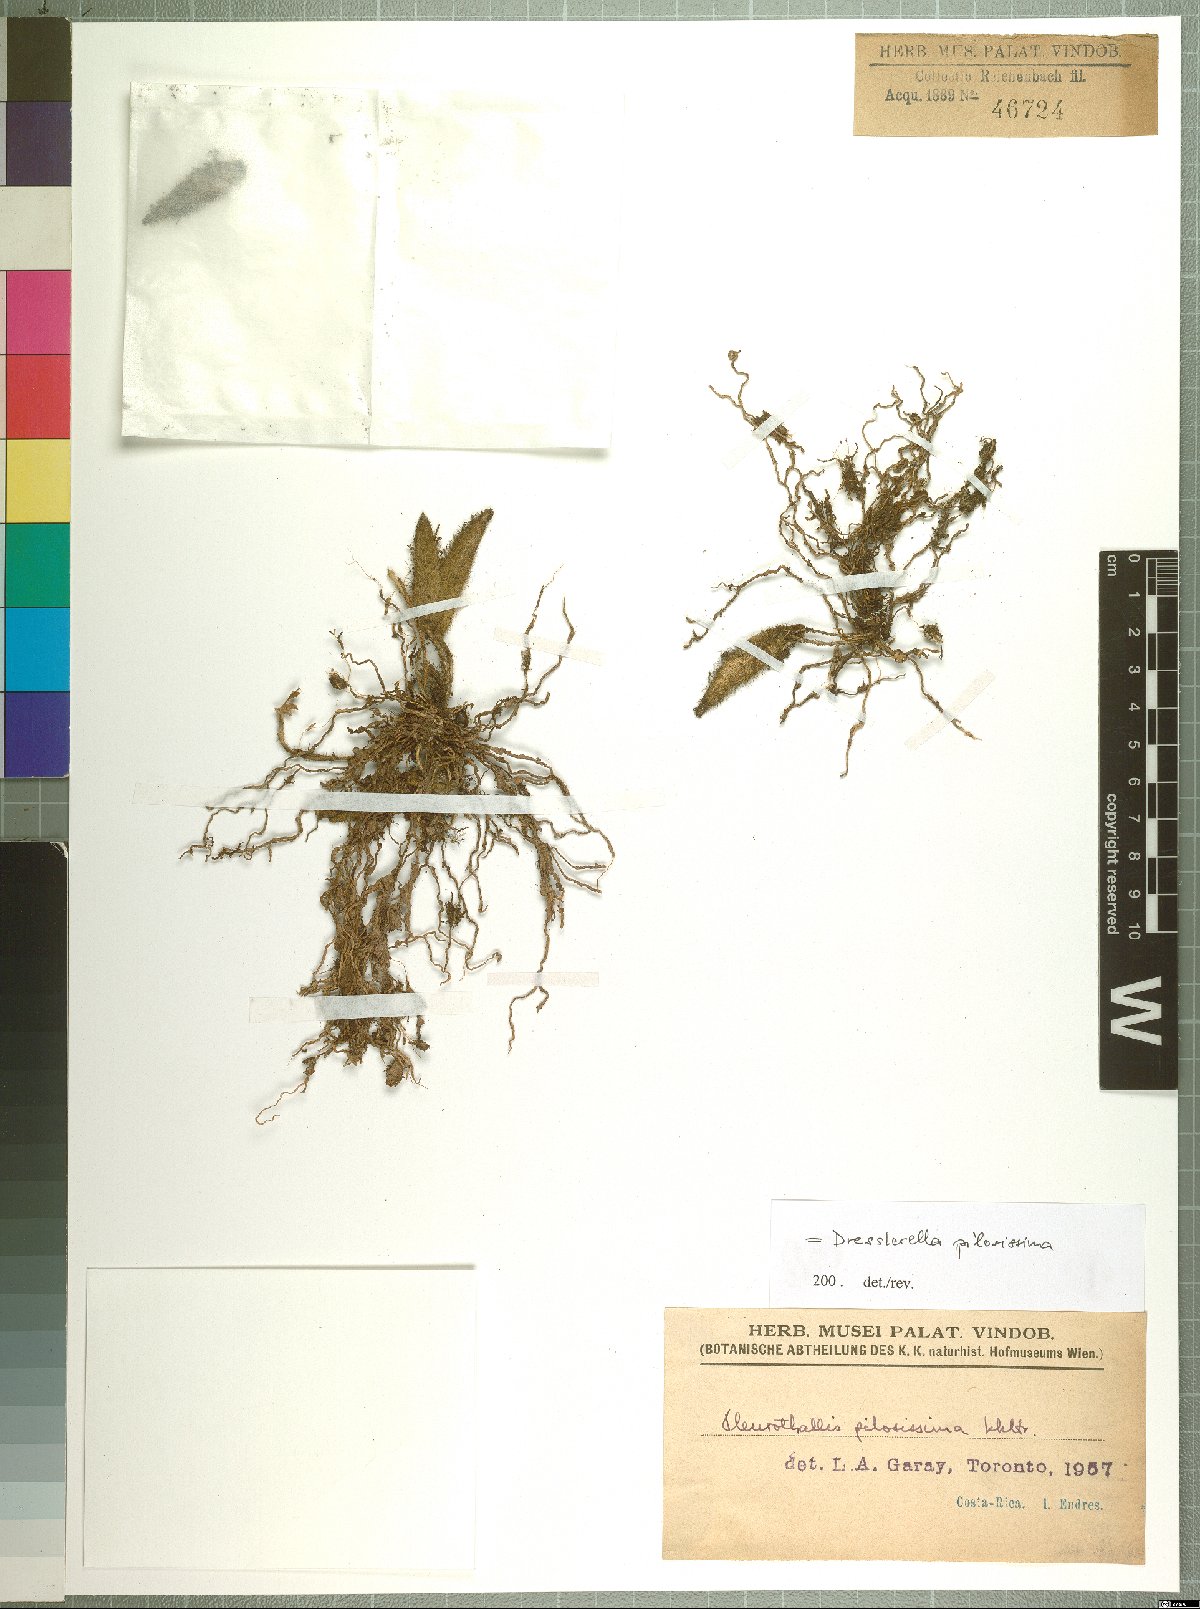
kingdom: Plantae
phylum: Tracheophyta
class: Liliopsida
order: Asparagales
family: Orchidaceae
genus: Dresslerella
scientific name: Dresslerella pilosissima
